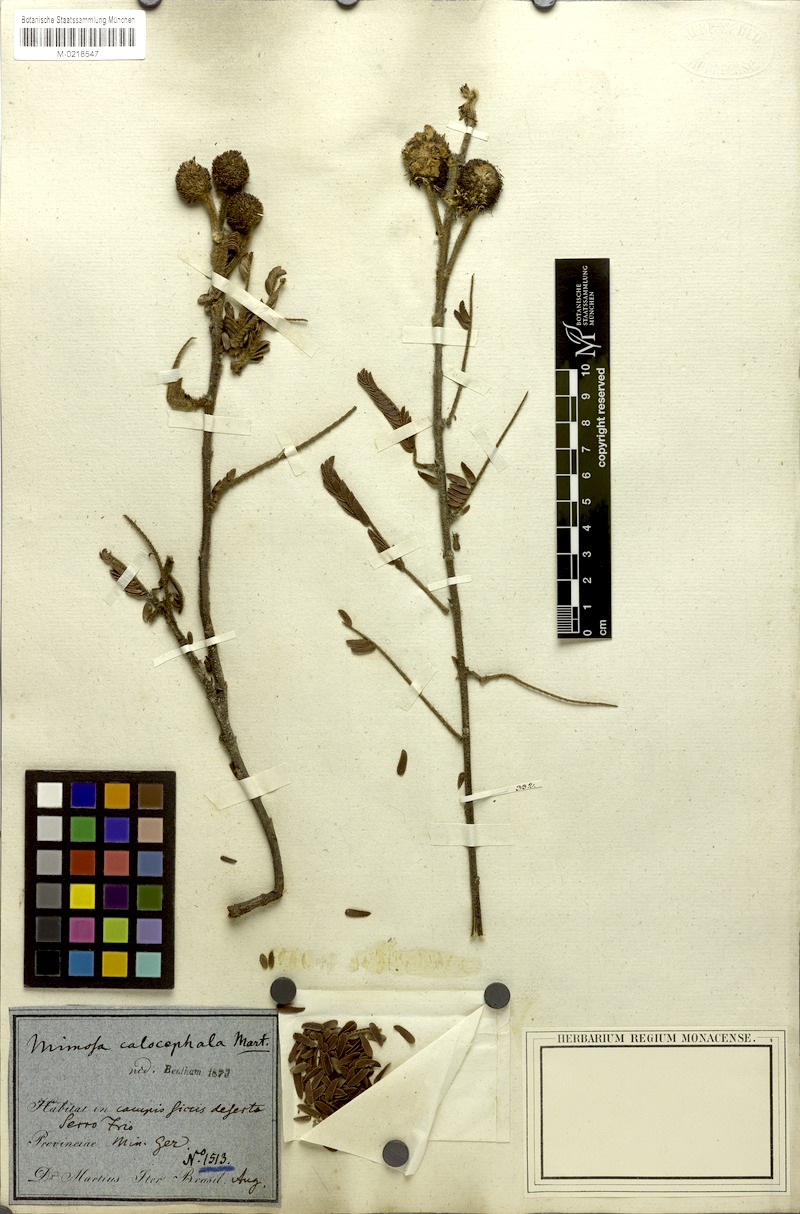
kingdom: Plantae
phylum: Tracheophyta
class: Magnoliopsida
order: Fabales
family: Fabaceae
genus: Mimosa
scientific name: Mimosa calocephala
